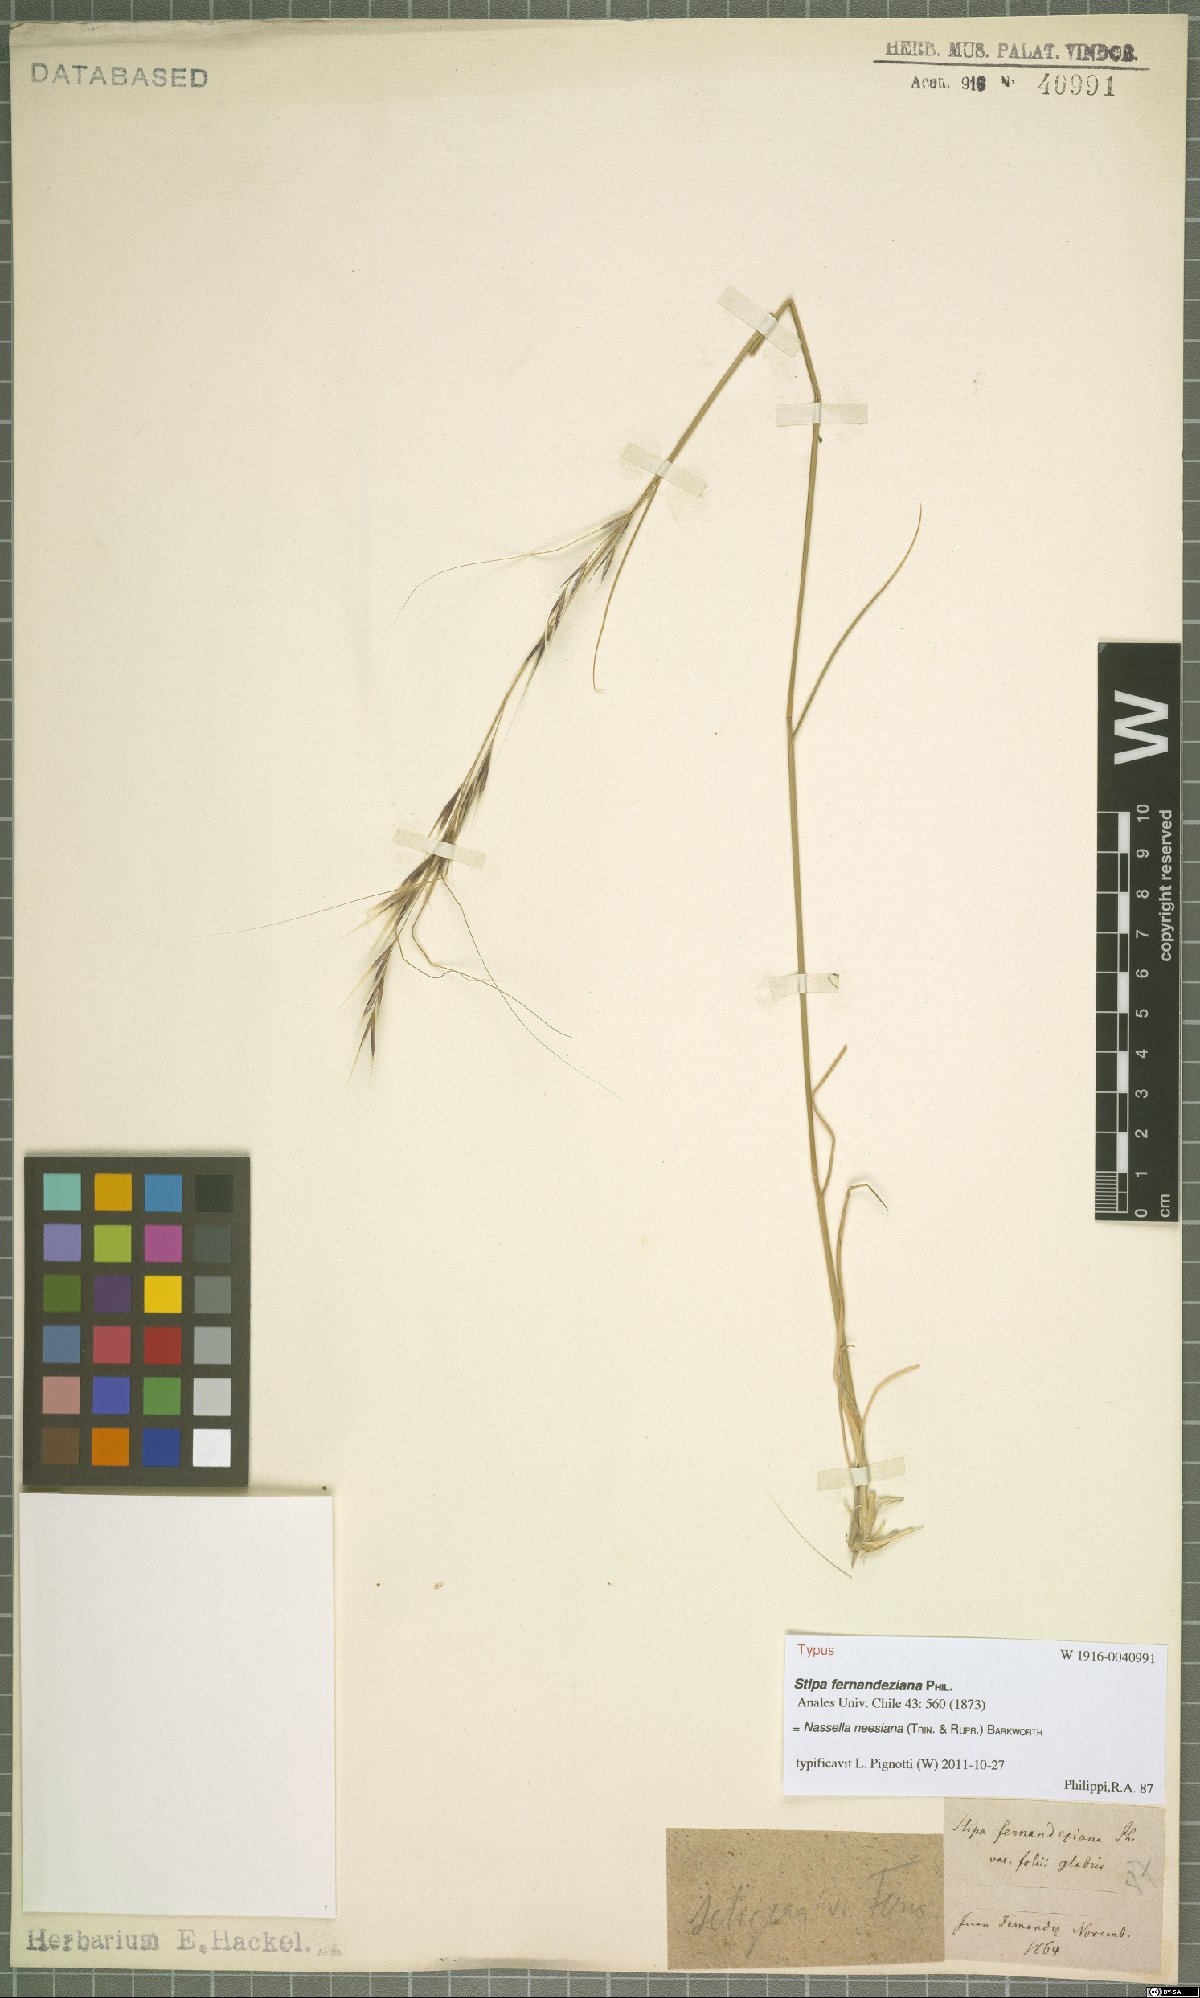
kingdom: Plantae
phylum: Tracheophyta
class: Liliopsida
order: Poales
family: Poaceae
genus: Nassella
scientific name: Nassella neesiana
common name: American needle-grass
